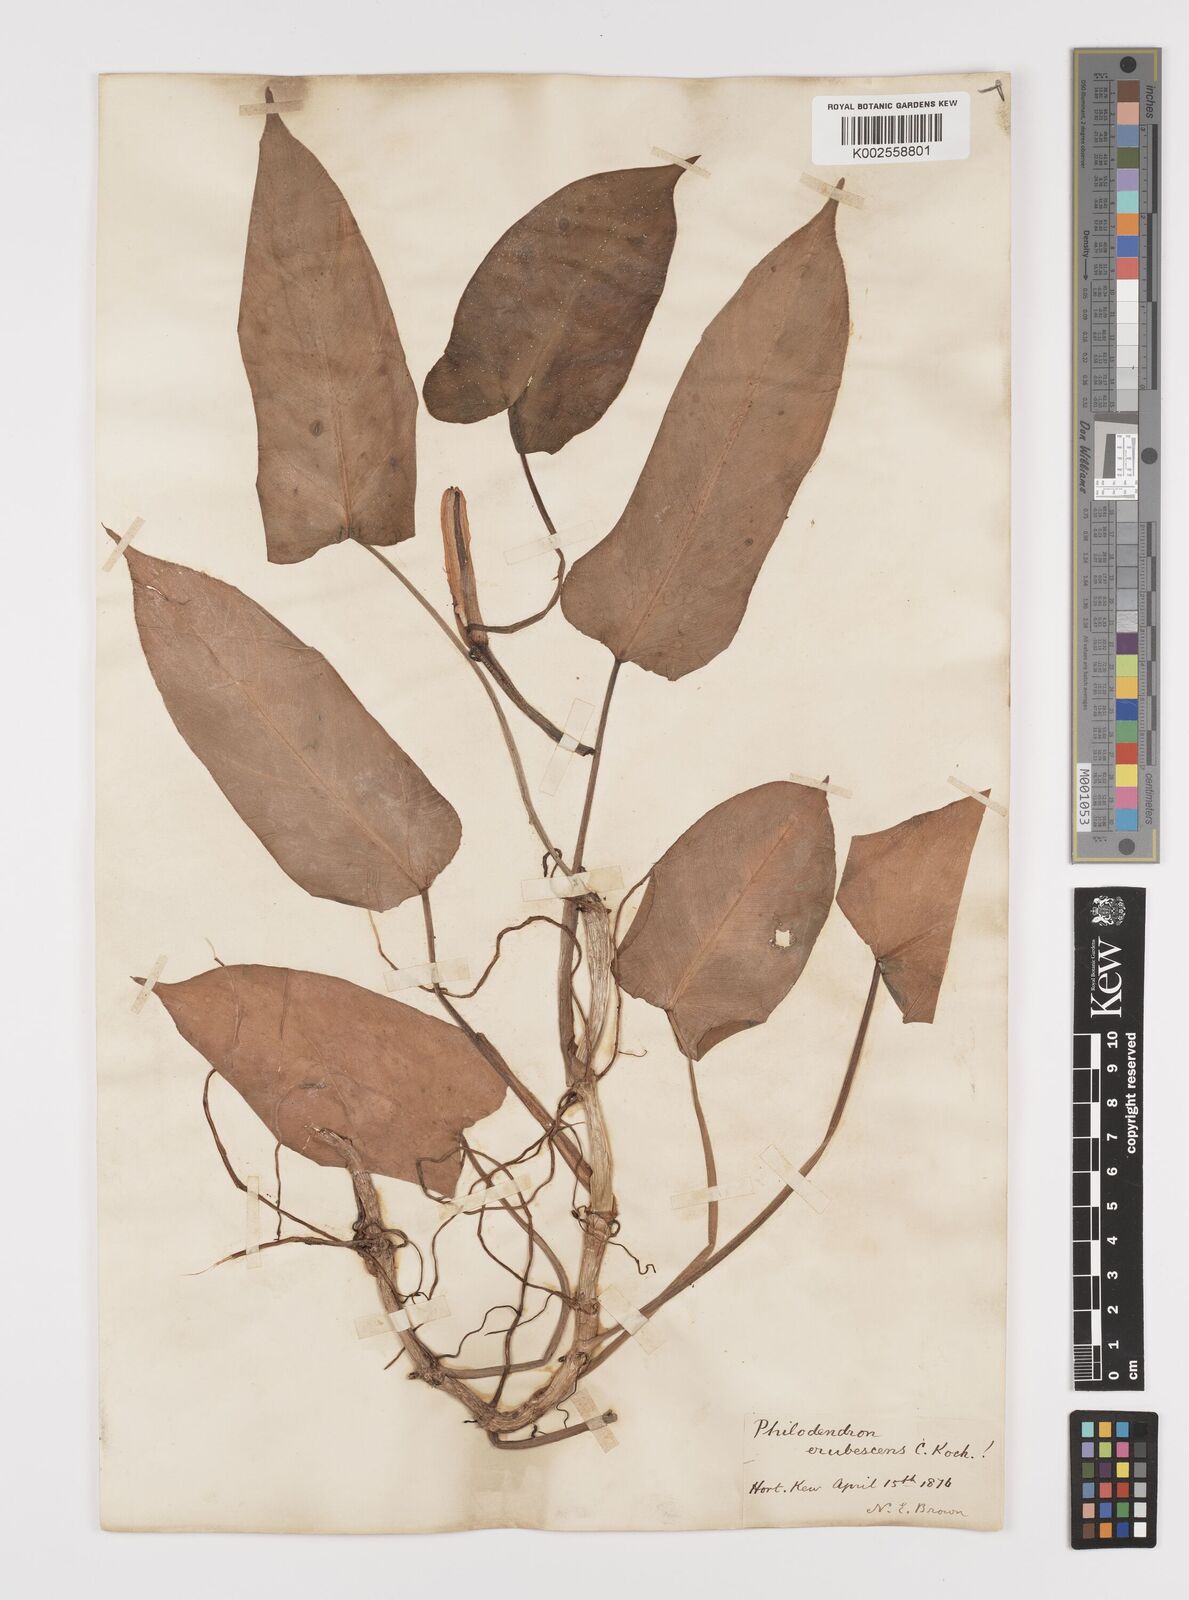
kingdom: Plantae
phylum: Tracheophyta
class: Liliopsida
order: Alismatales
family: Araceae
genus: Philodendron
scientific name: Philodendron erubescens
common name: Philodendron
